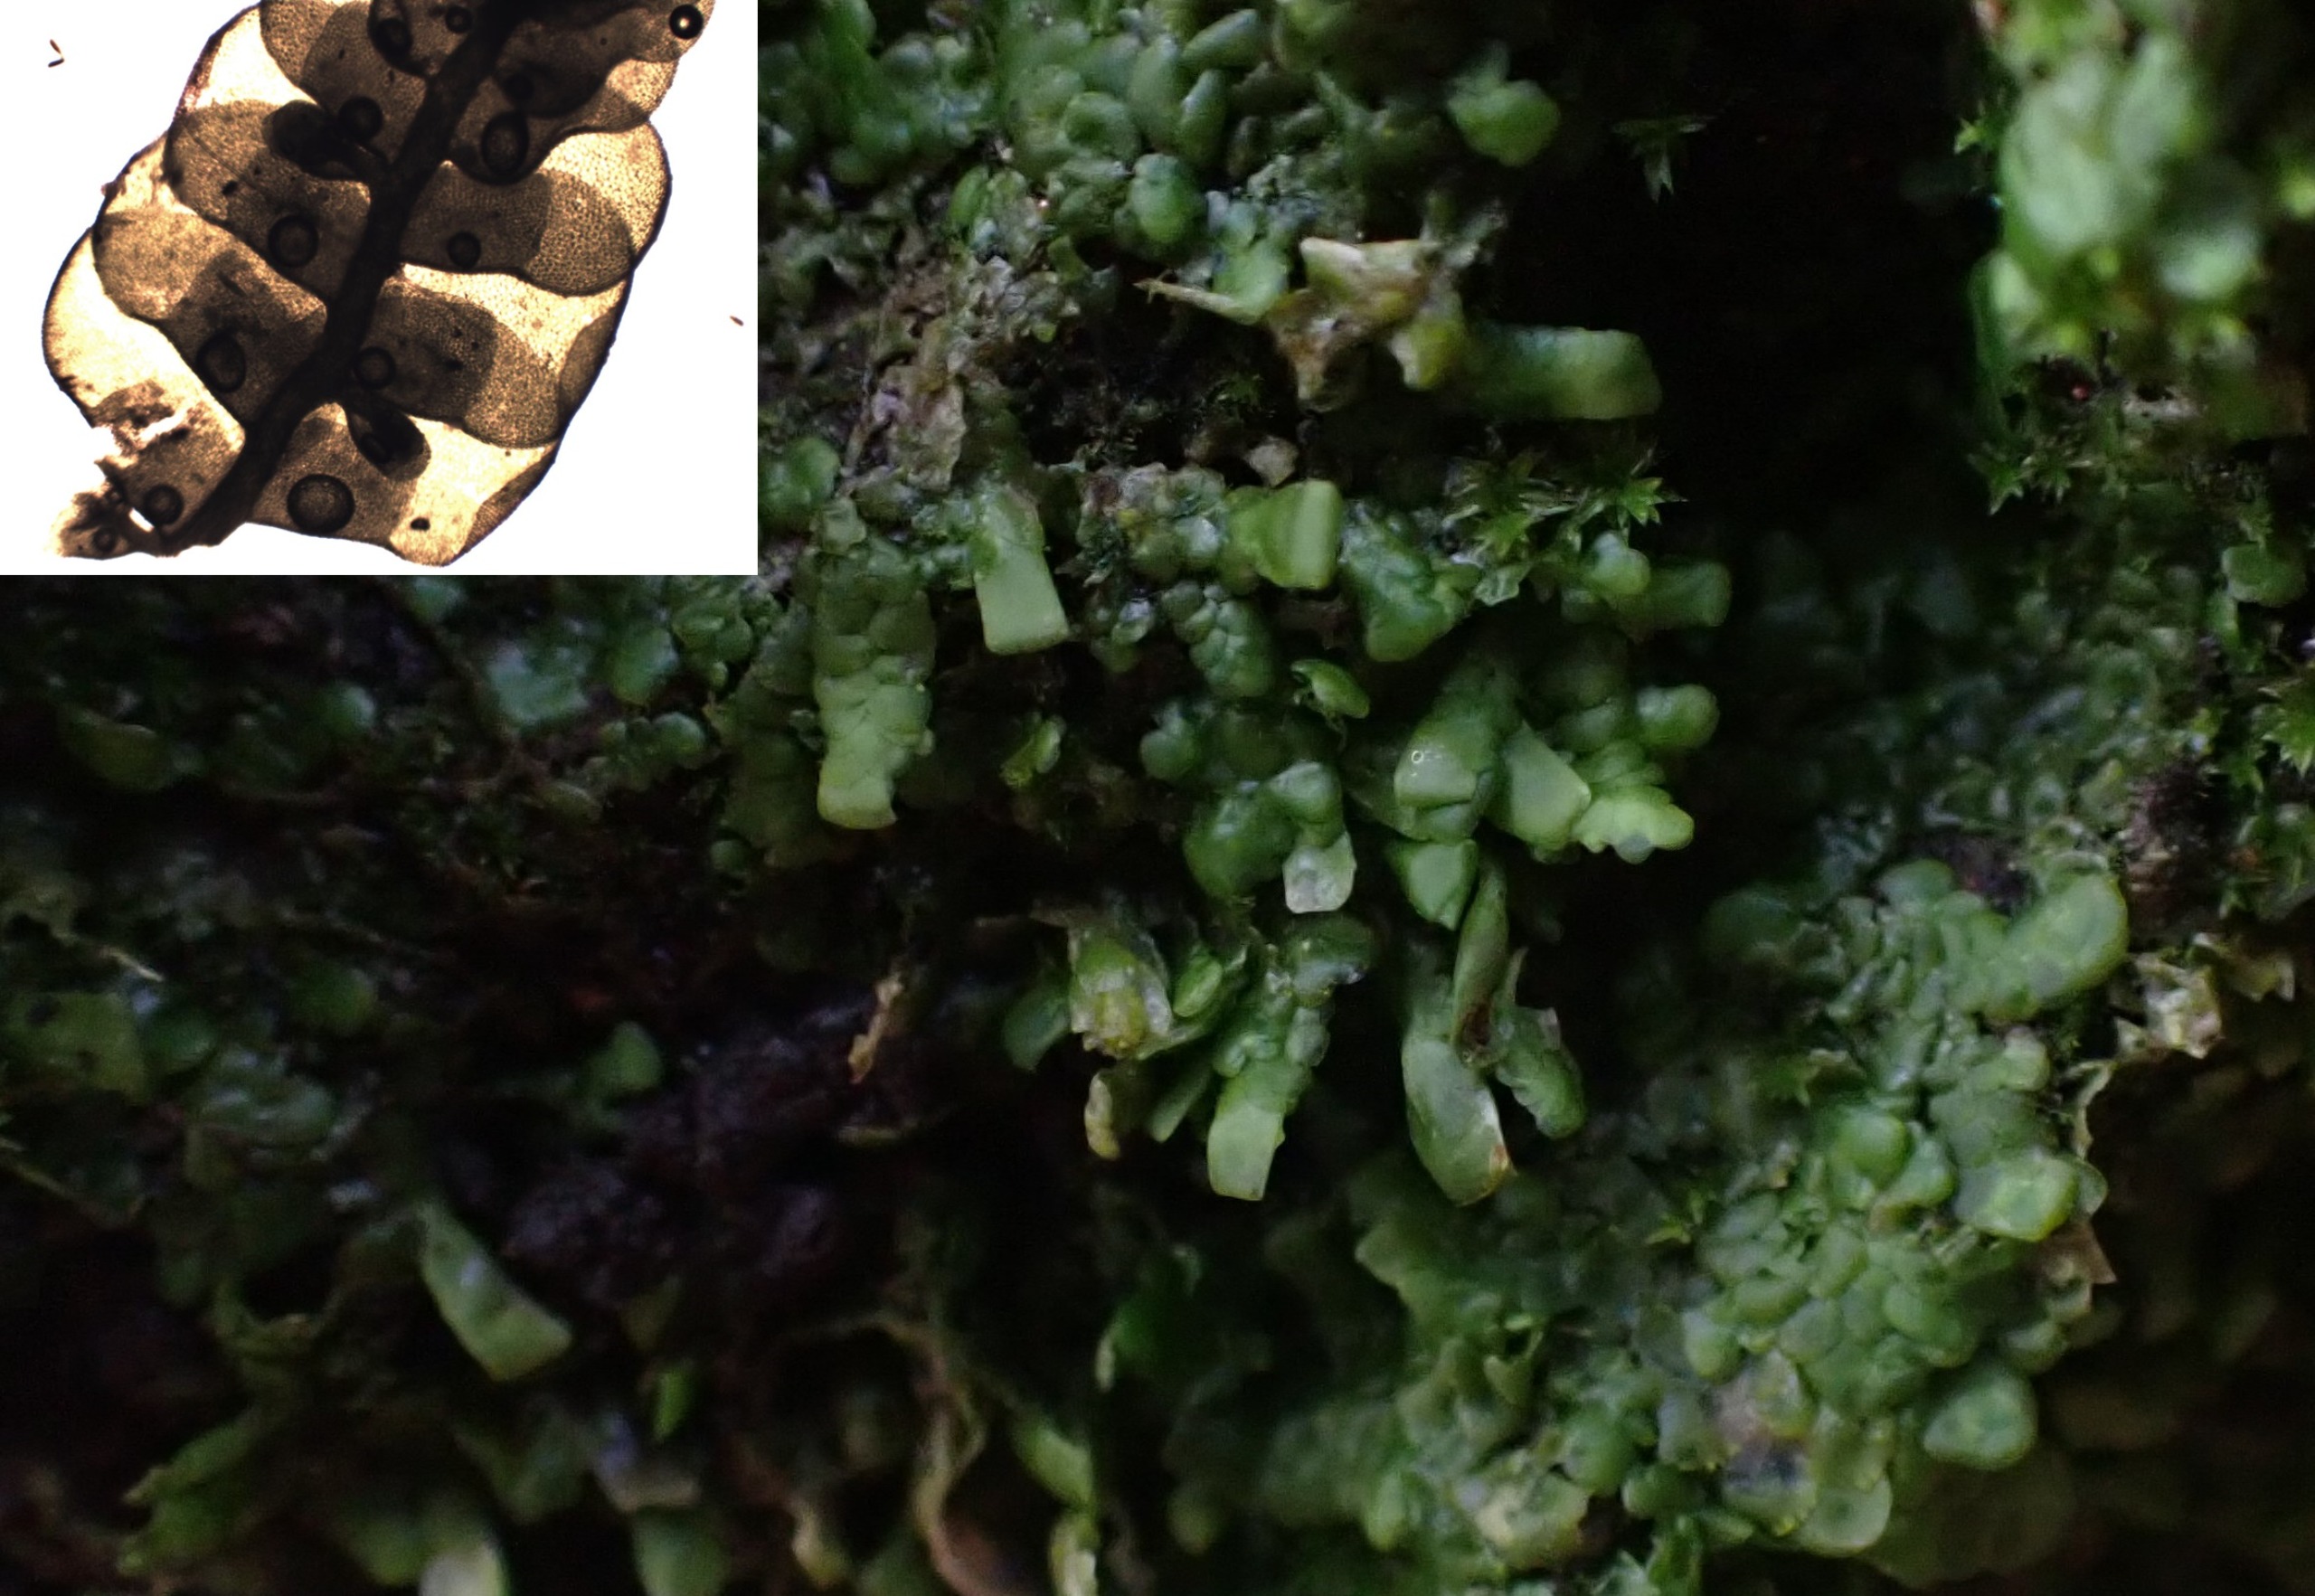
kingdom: Plantae
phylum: Marchantiophyta
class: Jungermanniopsida
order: Porellales
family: Radulaceae
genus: Radula
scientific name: Radula complanata
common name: Almindelig spartelmos
